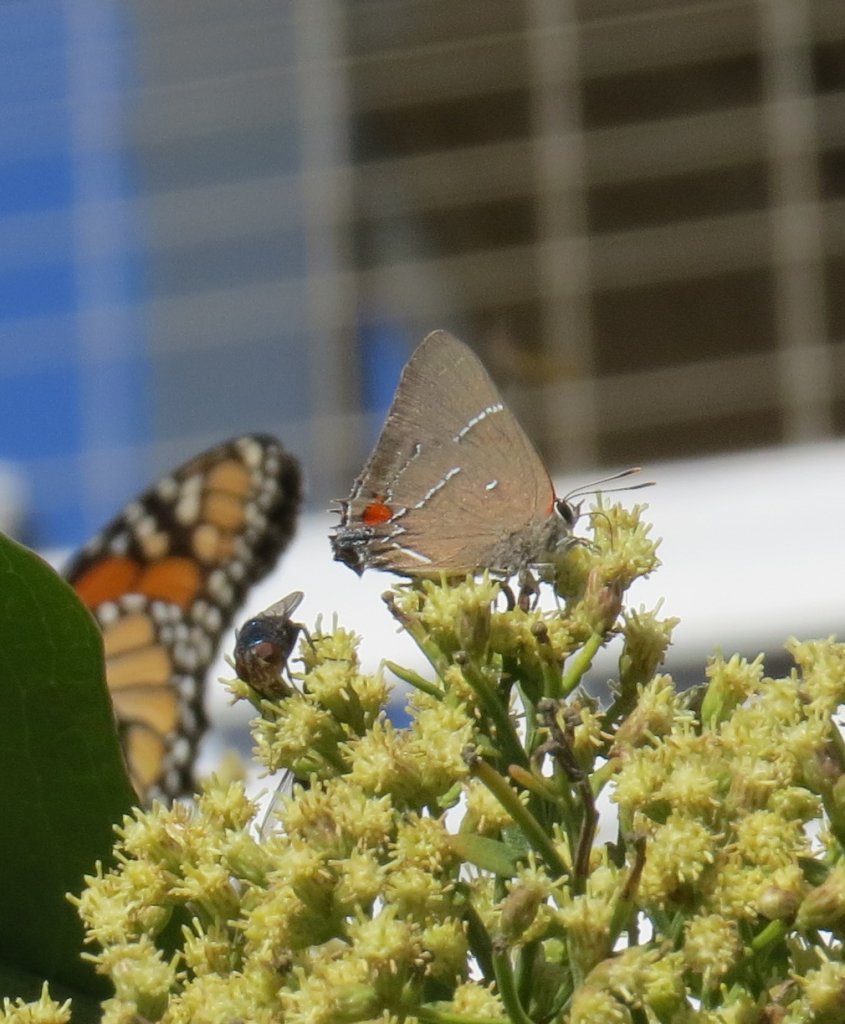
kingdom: Animalia
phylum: Arthropoda
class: Insecta
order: Lepidoptera
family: Lycaenidae
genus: Parrhasius
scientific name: Parrhasius m-album
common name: White-m Hairstreak
